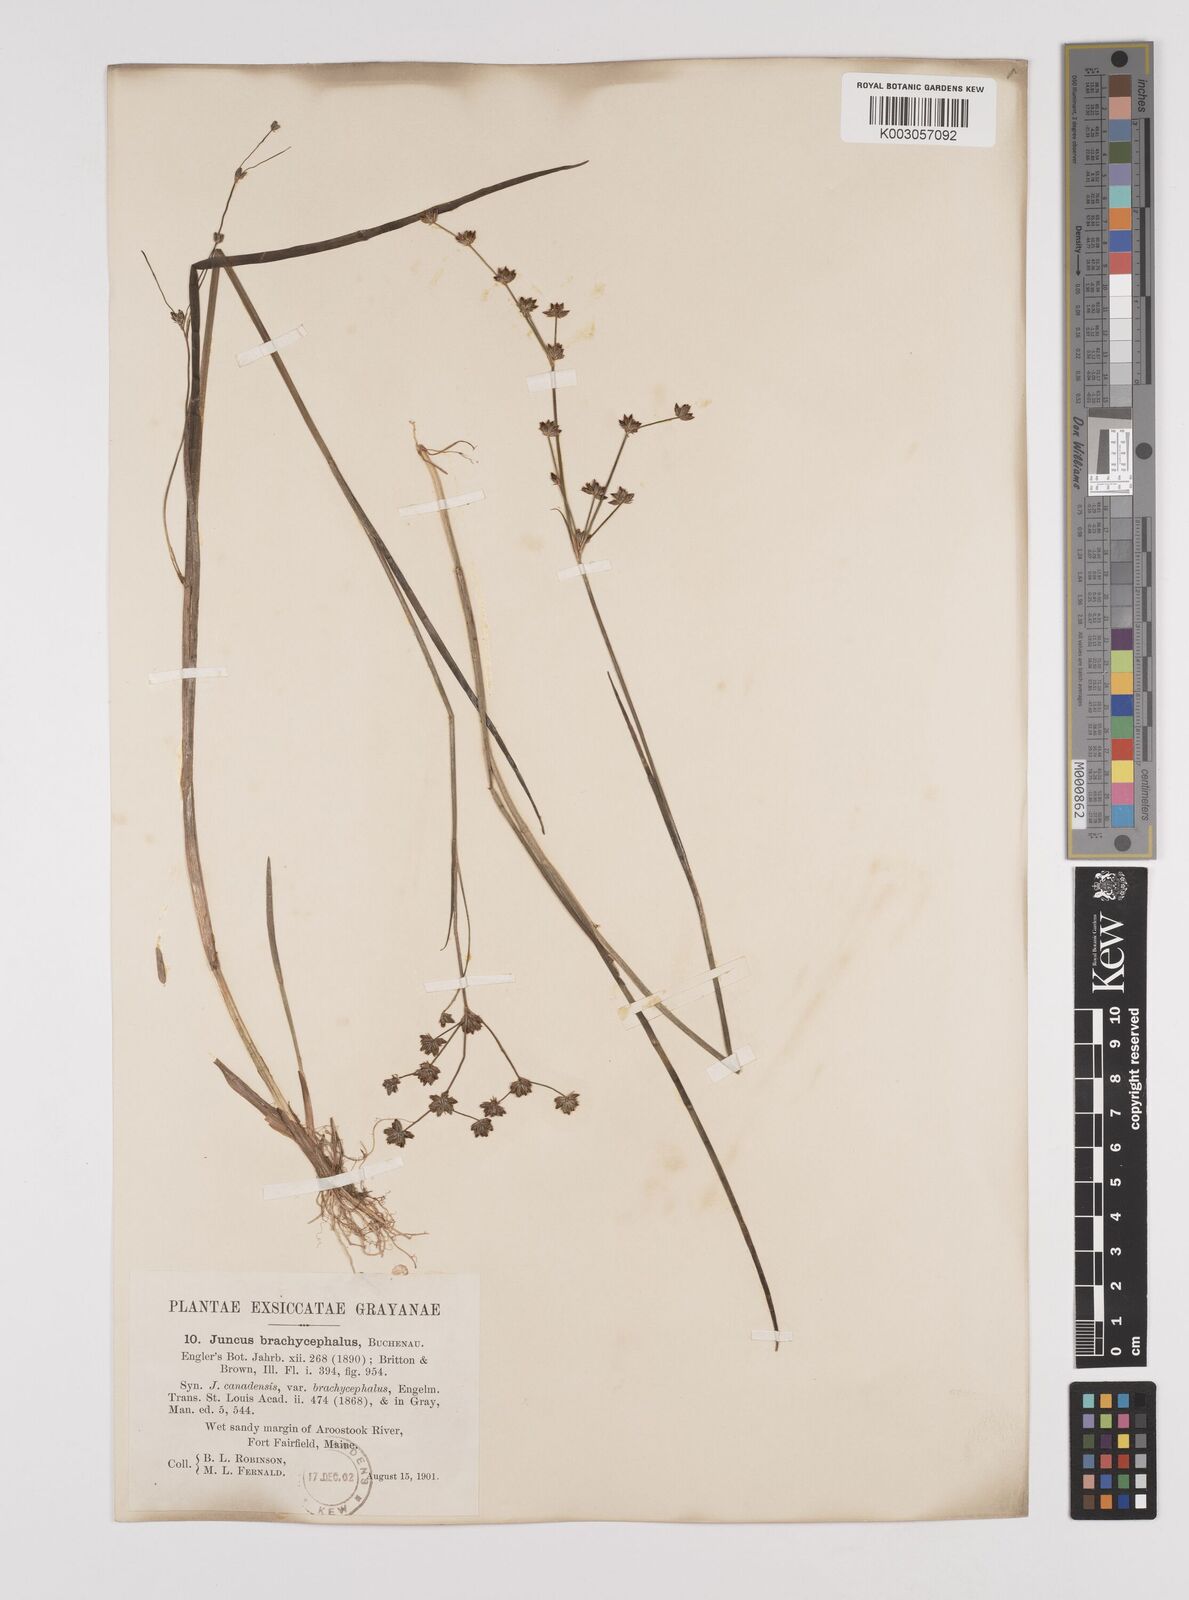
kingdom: Plantae
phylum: Tracheophyta
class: Liliopsida
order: Poales
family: Juncaceae
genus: Juncus
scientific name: Juncus canadensis
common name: Canada rush
